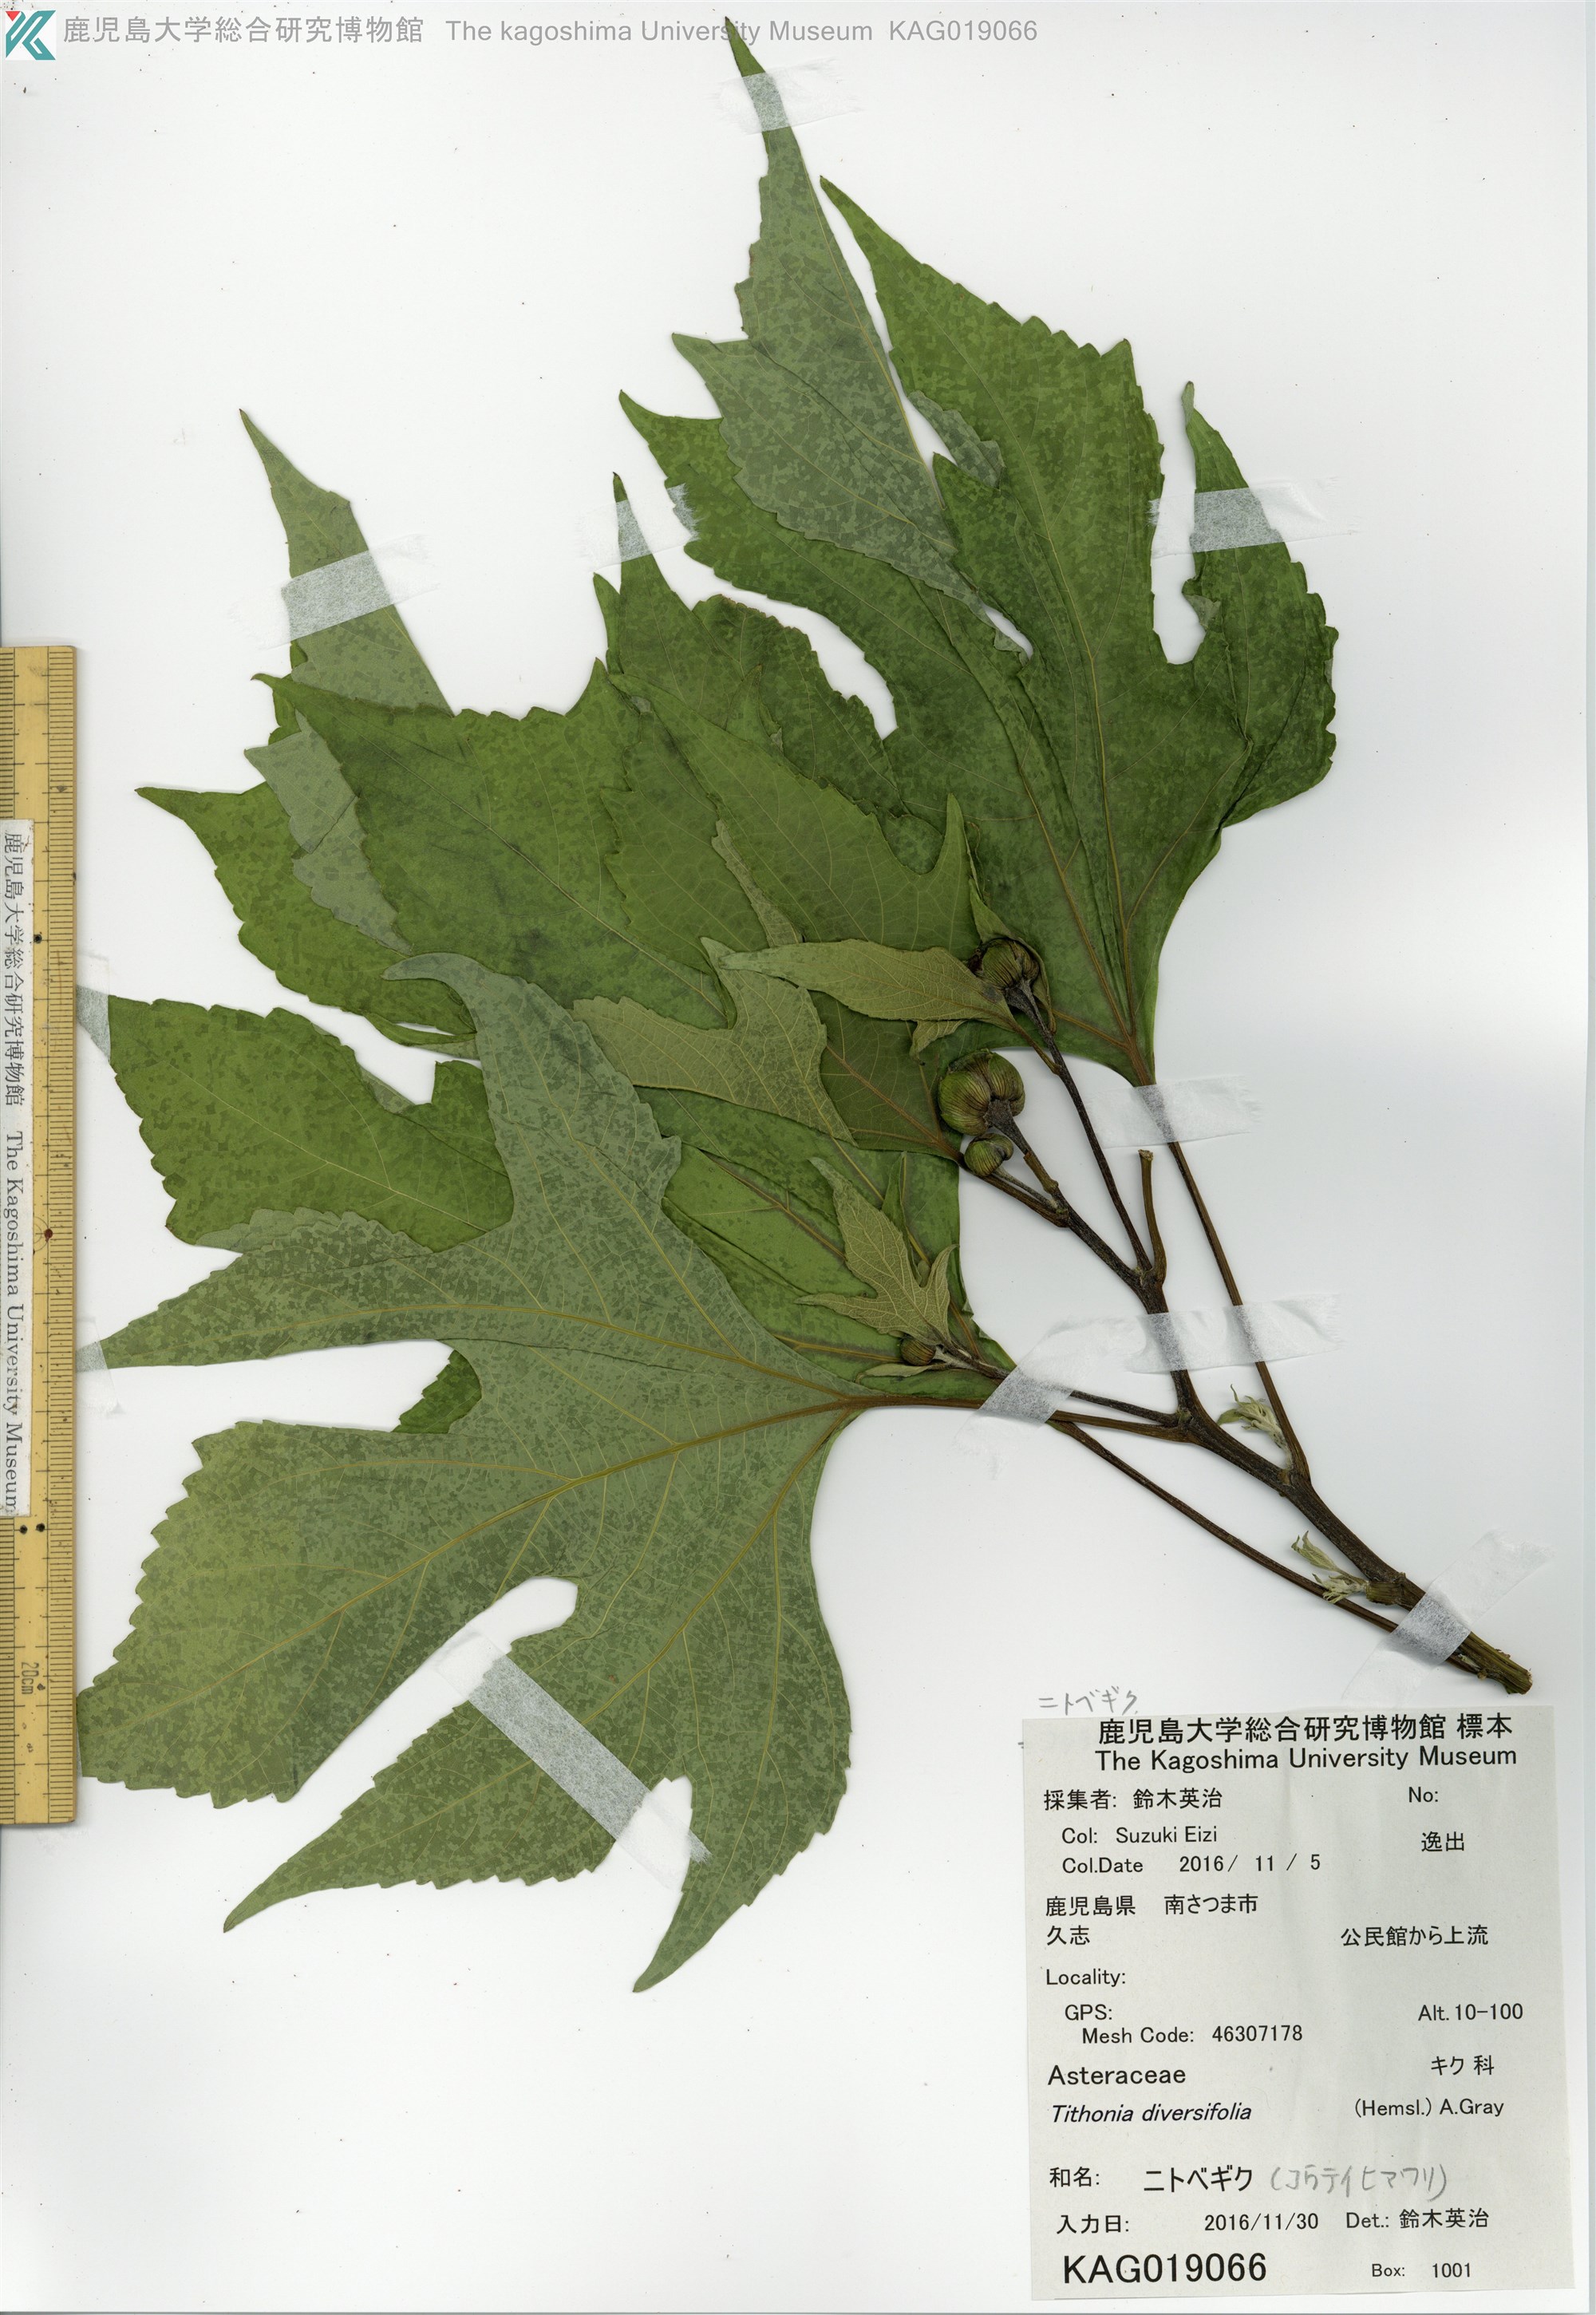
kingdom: Plantae
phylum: Tracheophyta
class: Magnoliopsida
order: Asterales
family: Asteraceae
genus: Tithonia
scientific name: Tithonia diversifolia
